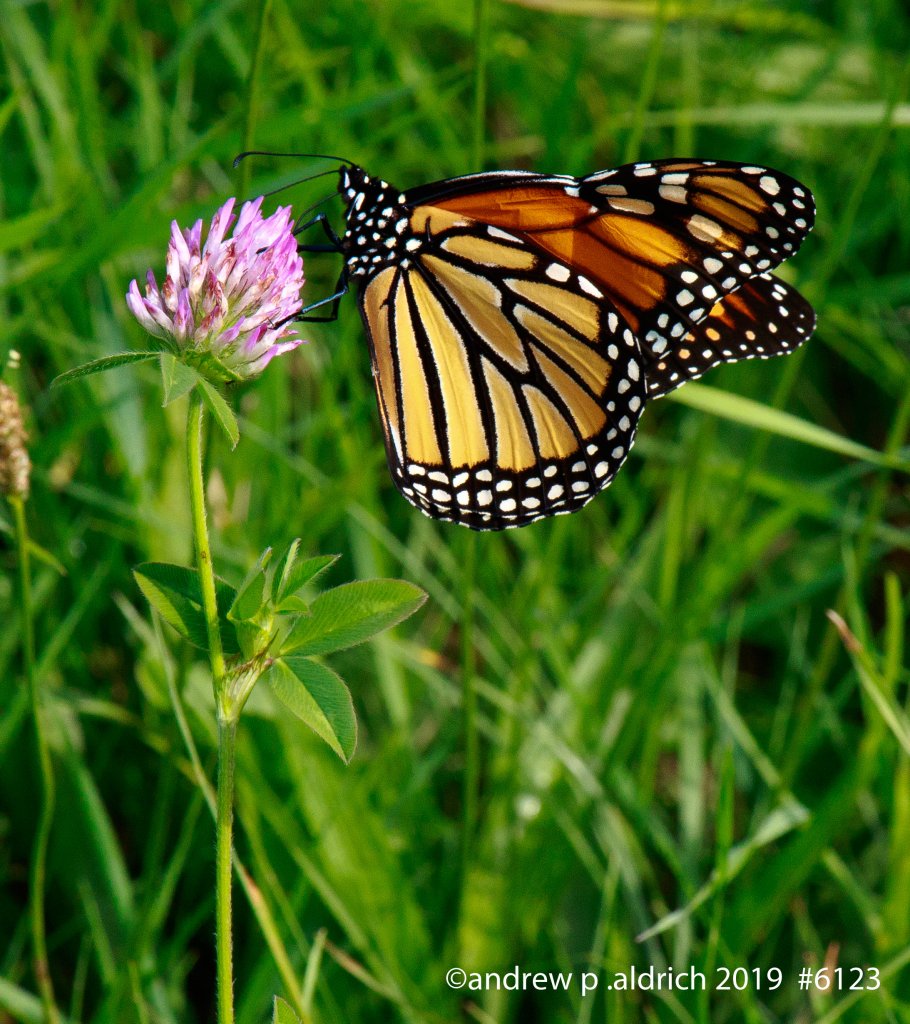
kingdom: Animalia
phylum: Arthropoda
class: Insecta
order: Lepidoptera
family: Nymphalidae
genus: Danaus
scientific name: Danaus plexippus
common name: Monarch
